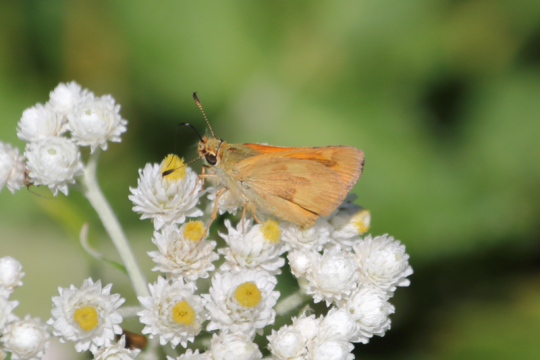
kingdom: Animalia
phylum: Arthropoda
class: Insecta
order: Lepidoptera
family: Hesperiidae
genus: Ochlodes
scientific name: Ochlodes sylvanoides
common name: Woodland Skipper
